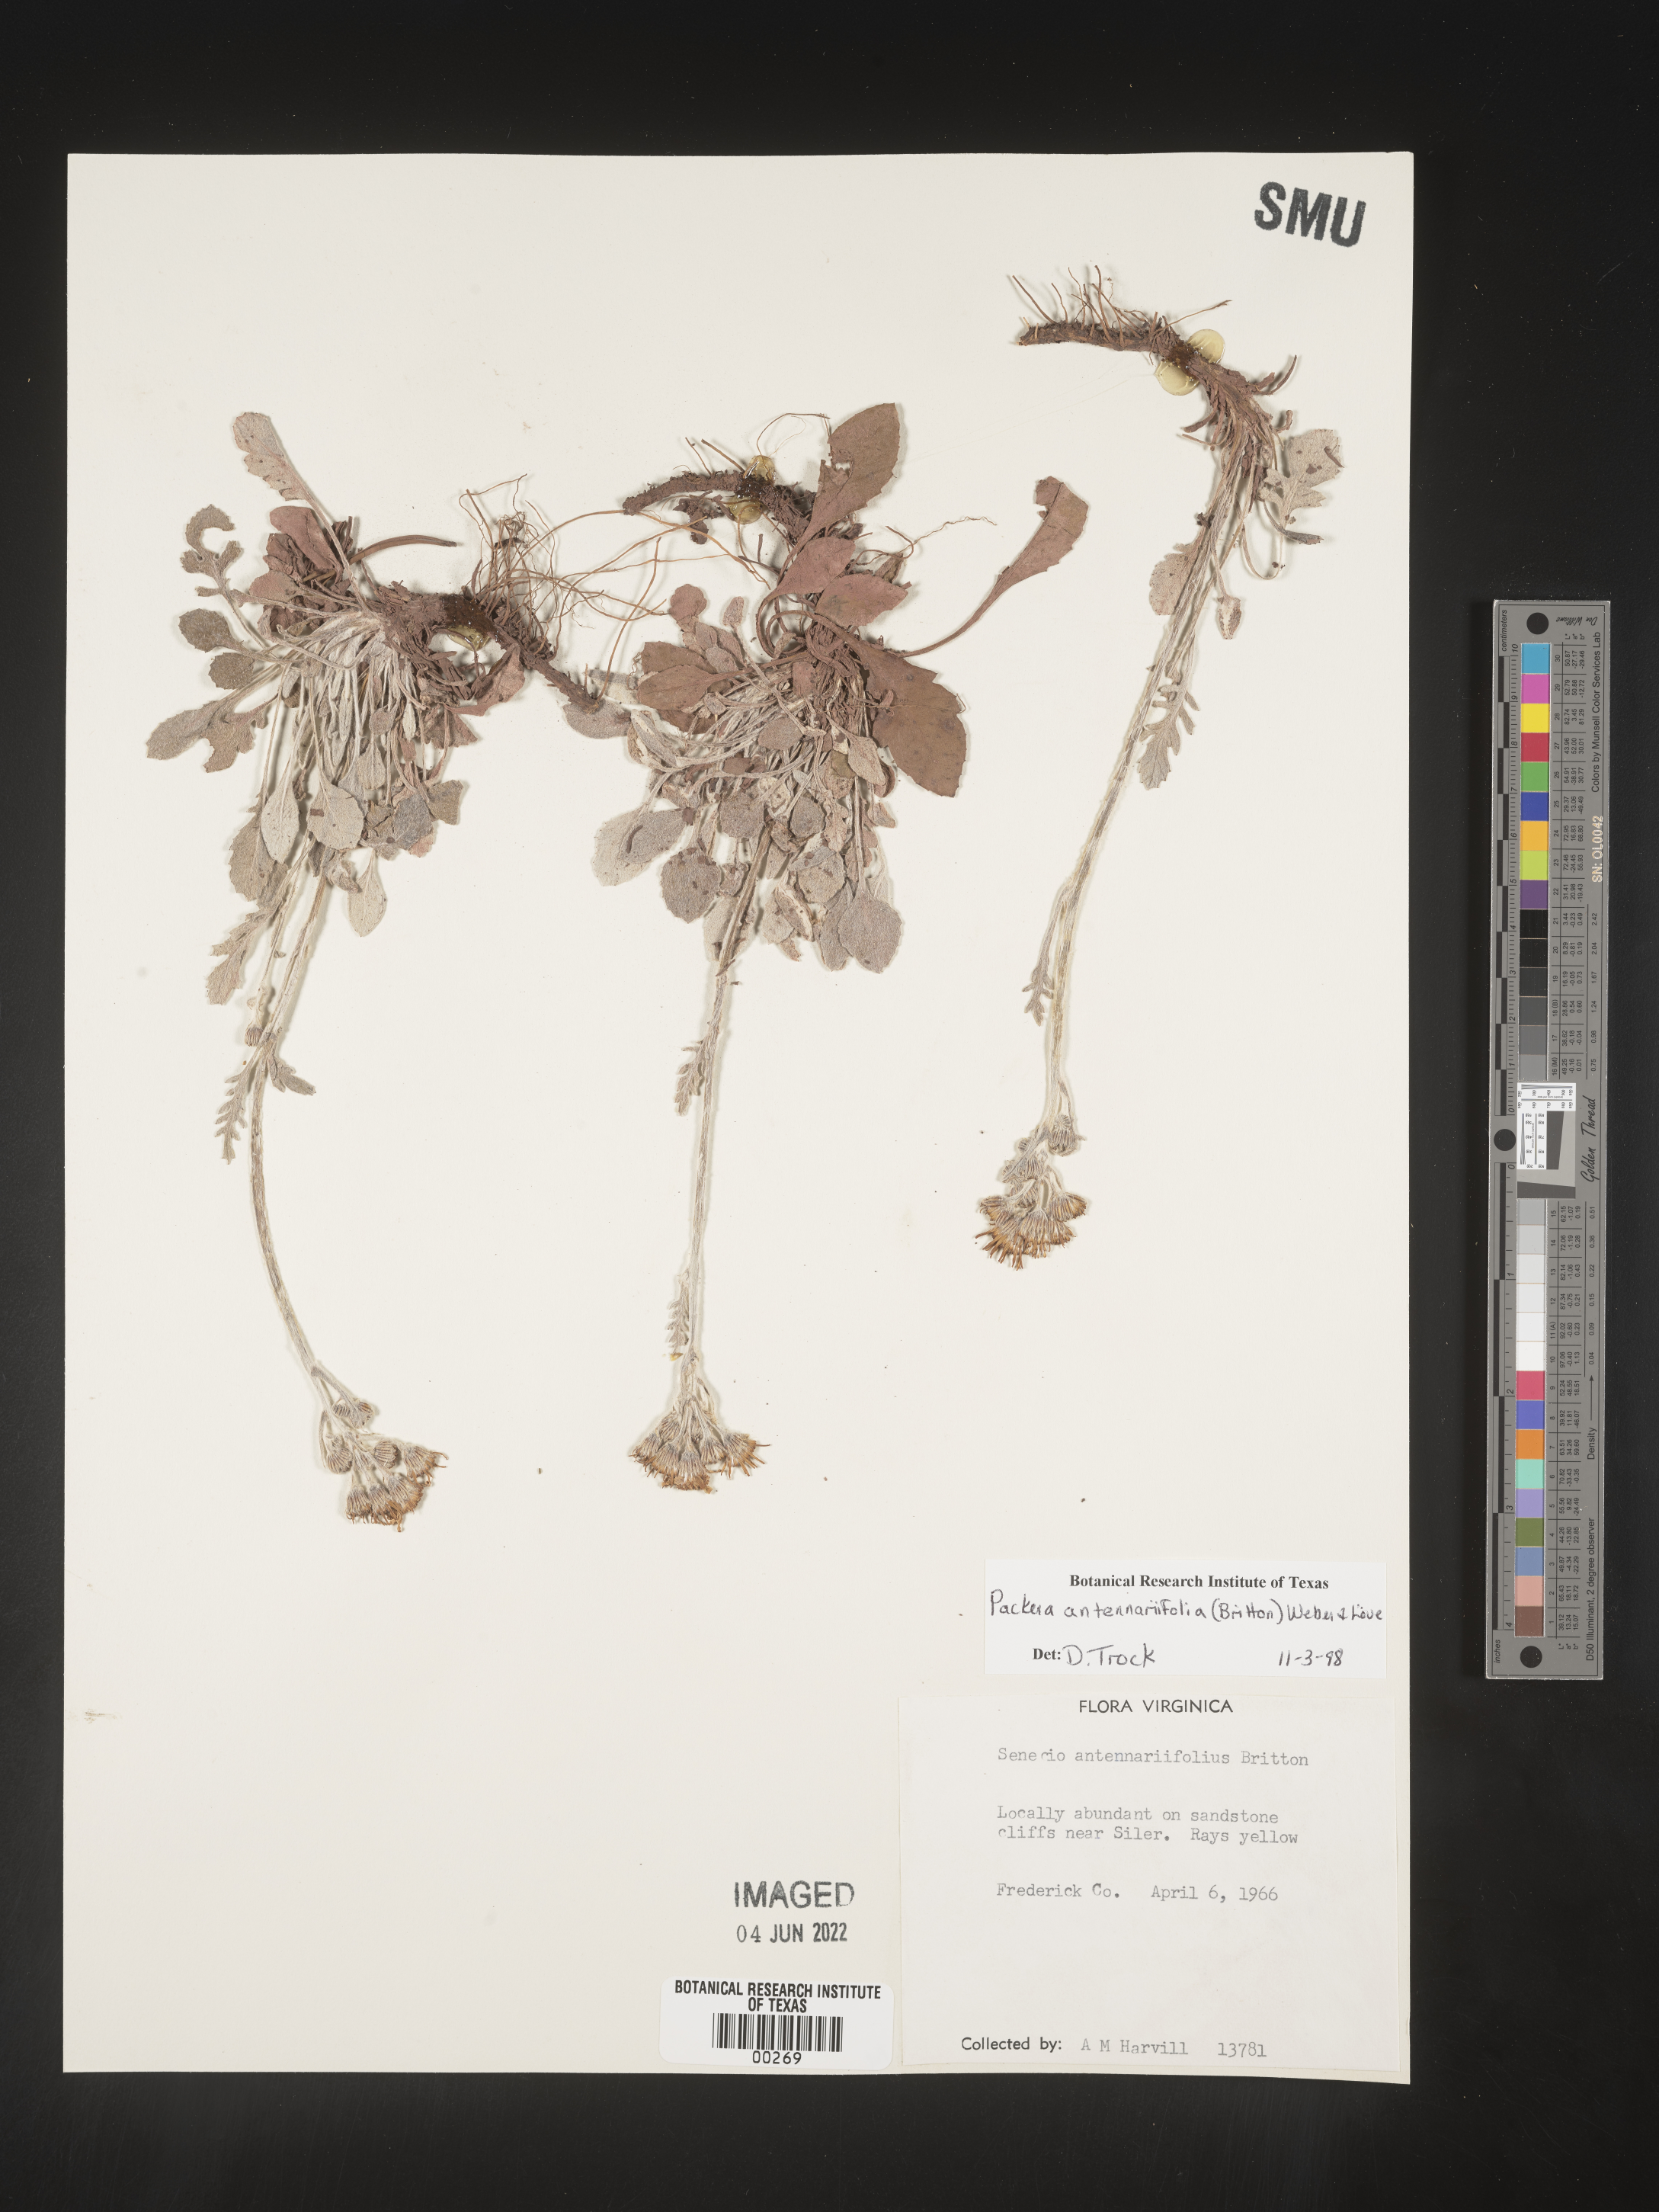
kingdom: Plantae
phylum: Tracheophyta
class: Magnoliopsida
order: Asterales
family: Asteraceae
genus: Packera
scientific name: Packera antennariifolia
